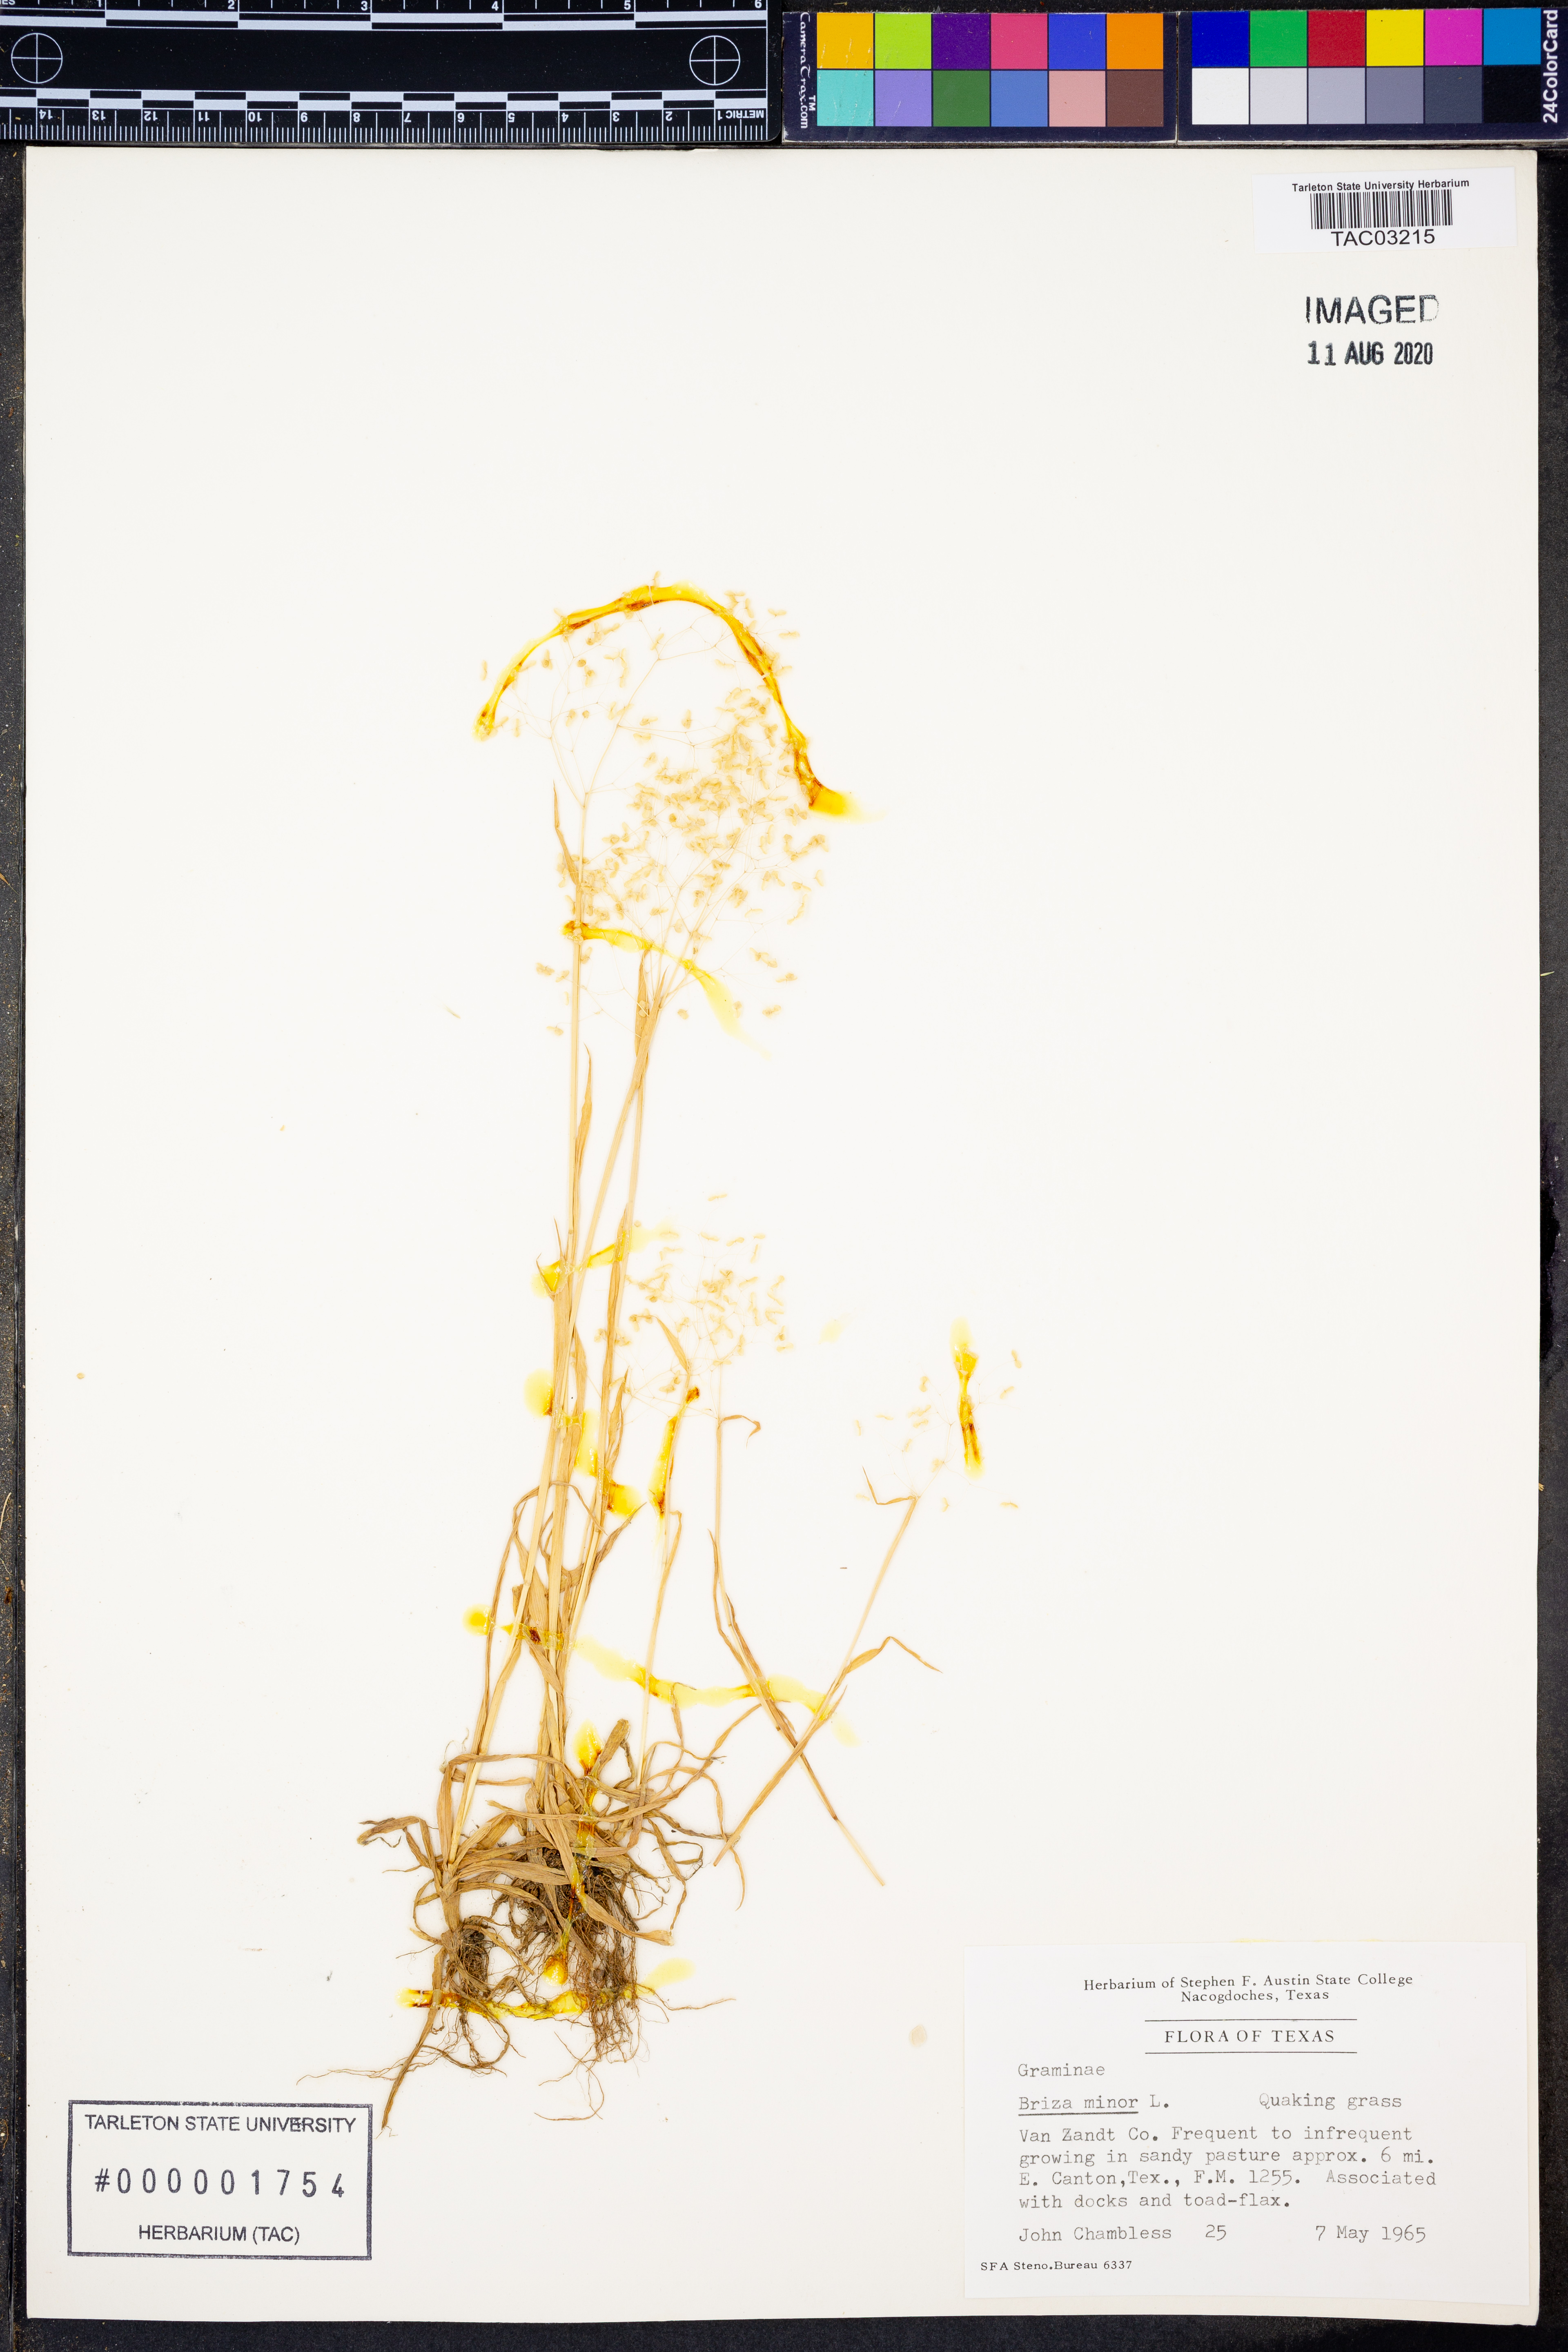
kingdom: Plantae
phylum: Tracheophyta
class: Liliopsida
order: Poales
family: Poaceae
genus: Briza
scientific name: Briza minor
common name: Lesser quaking-grass
